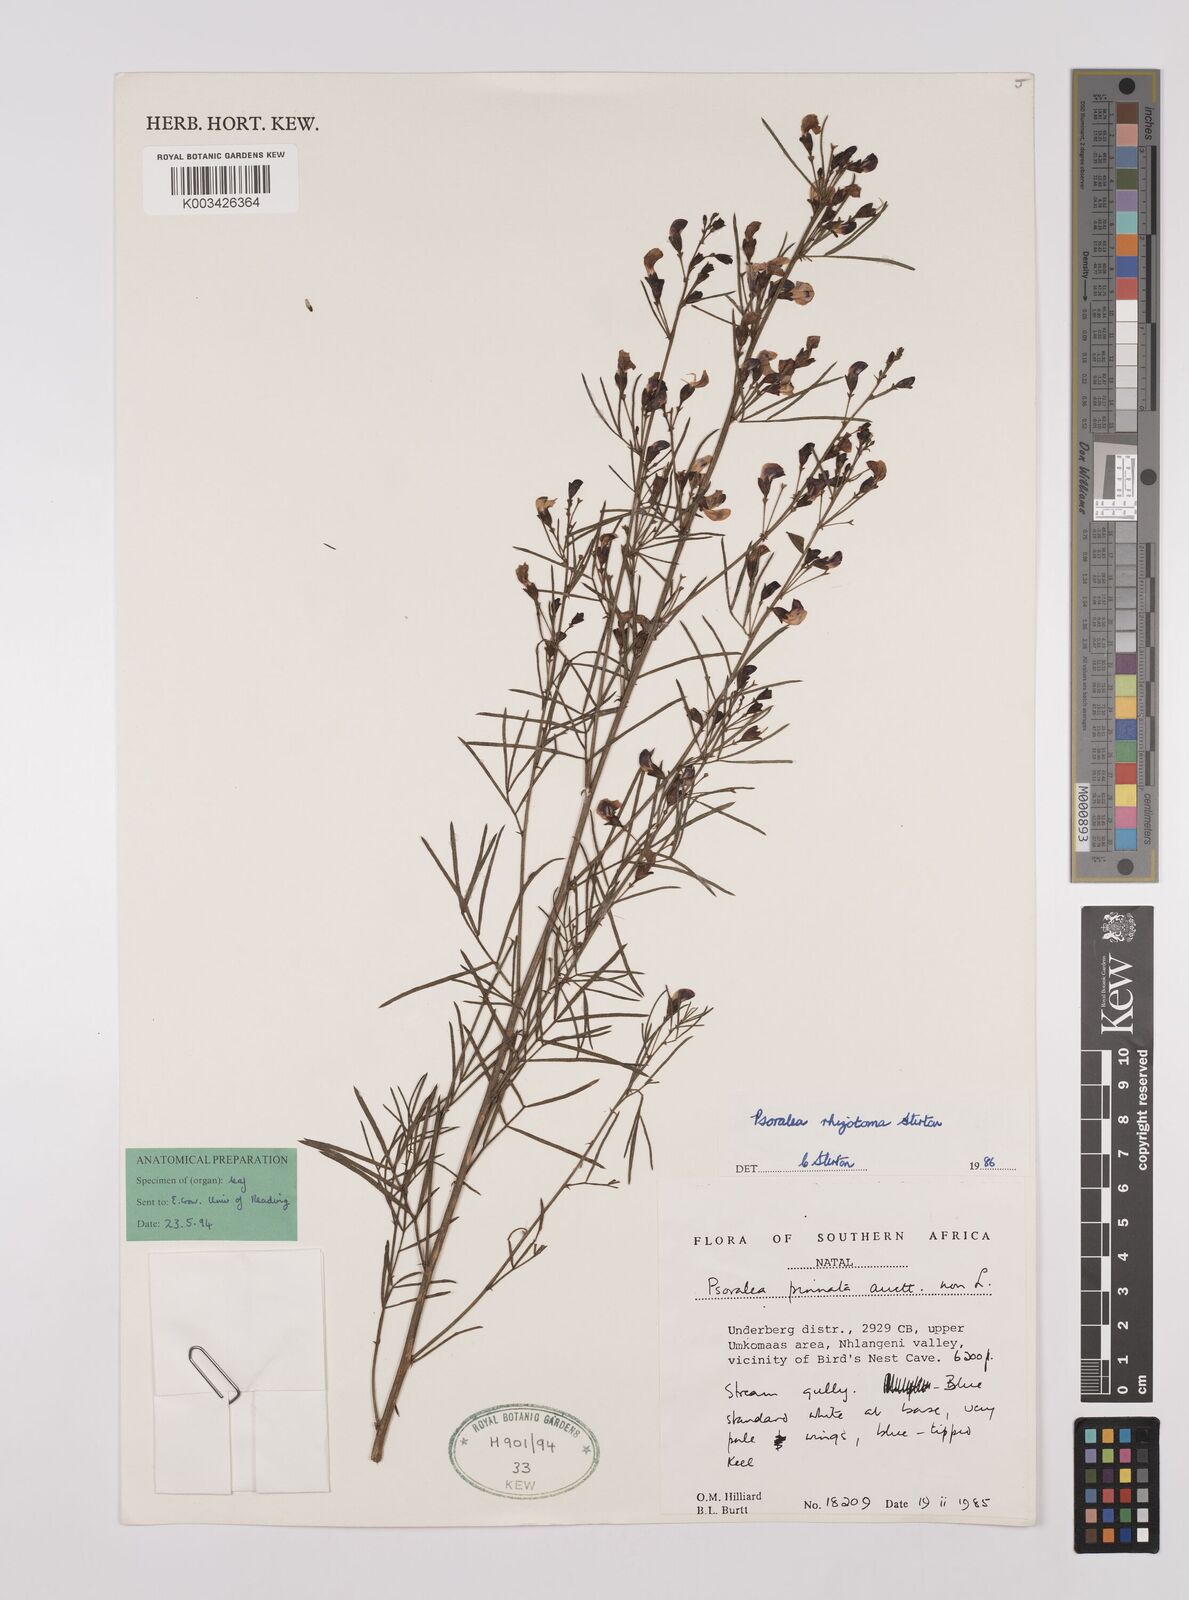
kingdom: Plantae
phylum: Tracheophyta
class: Magnoliopsida
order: Fabales
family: Fabaceae
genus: Psoralea
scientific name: Psoralea rhizotoma
